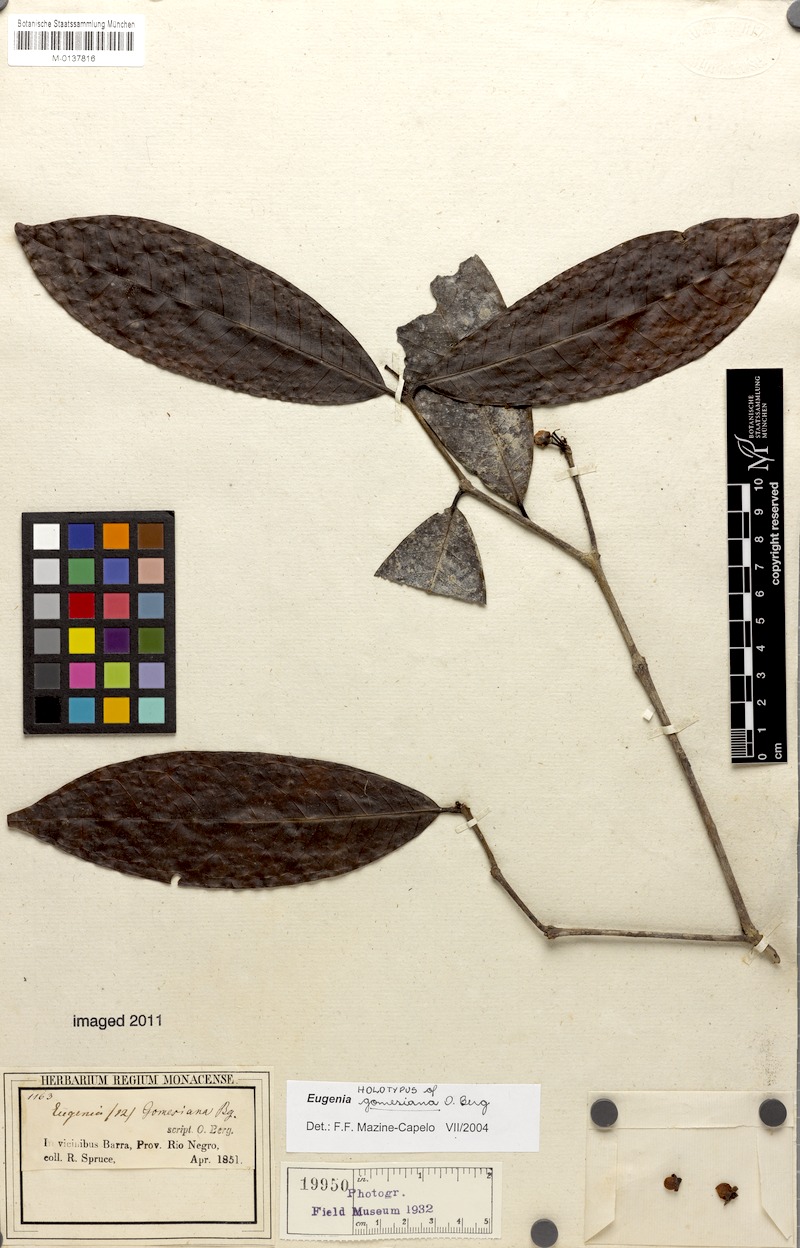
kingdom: Plantae
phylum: Tracheophyta
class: Magnoliopsida
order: Myrtales
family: Myrtaceae
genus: Eugenia
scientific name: Eugenia gomesiana
